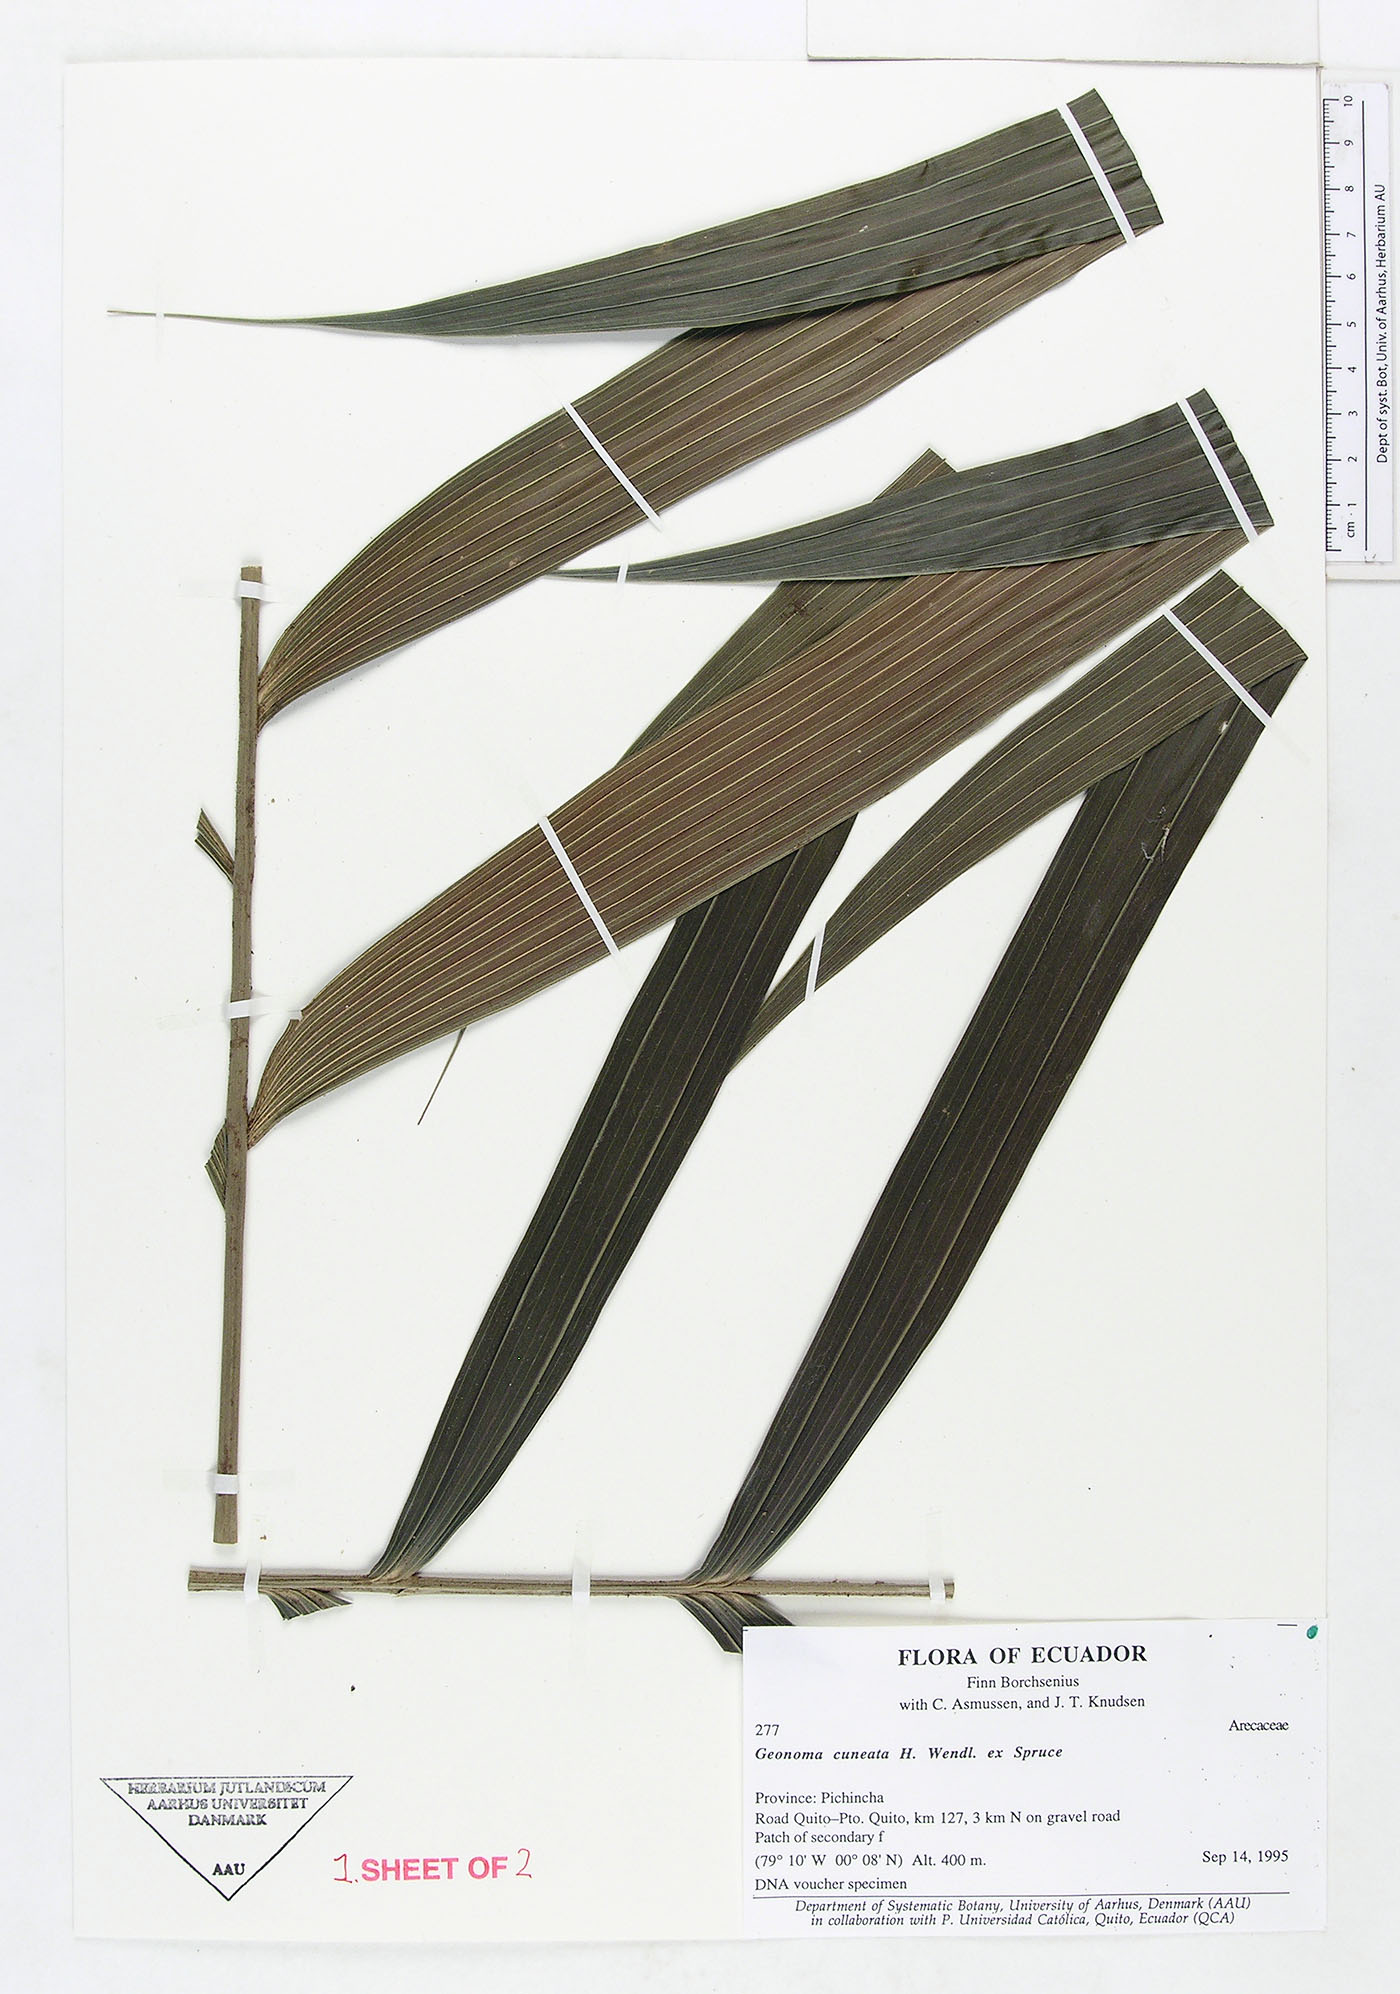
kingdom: Plantae
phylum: Tracheophyta
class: Liliopsida
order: Arecales
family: Arecaceae
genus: Geonoma
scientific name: Geonoma cuneata
